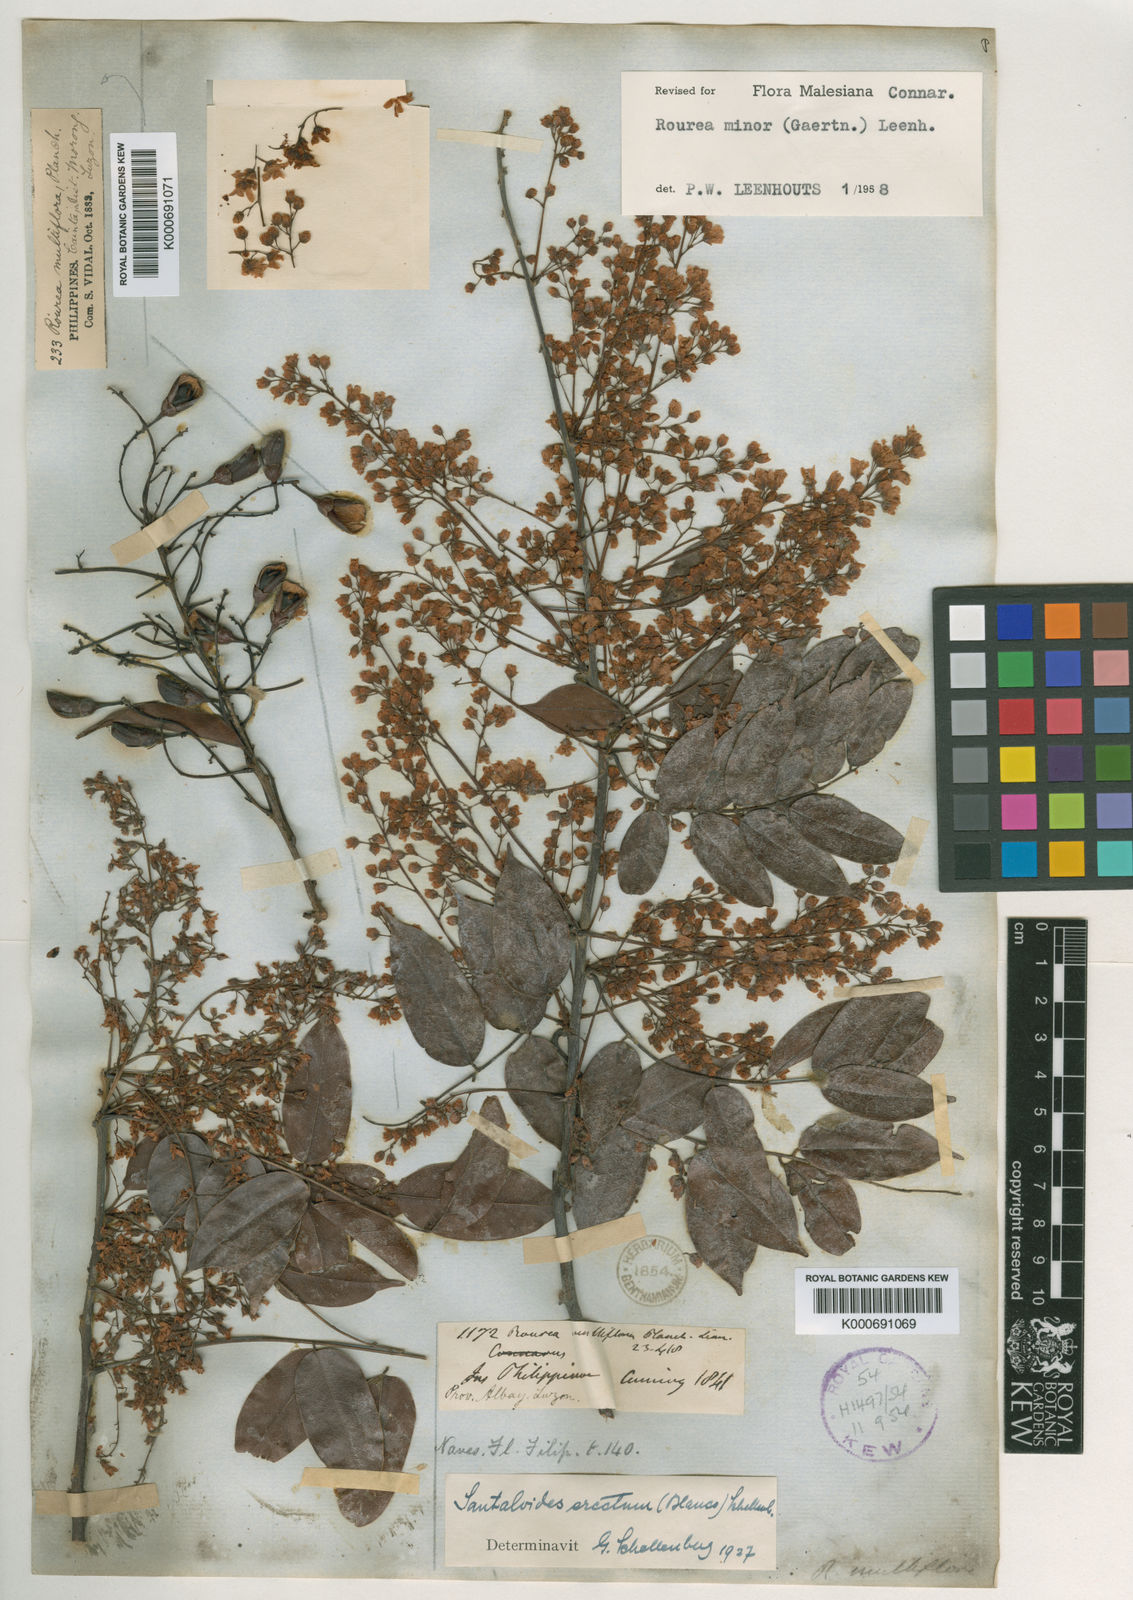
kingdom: Plantae
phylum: Tracheophyta
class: Magnoliopsida
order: Oxalidales
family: Connaraceae
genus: Rourea
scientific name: Rourea
